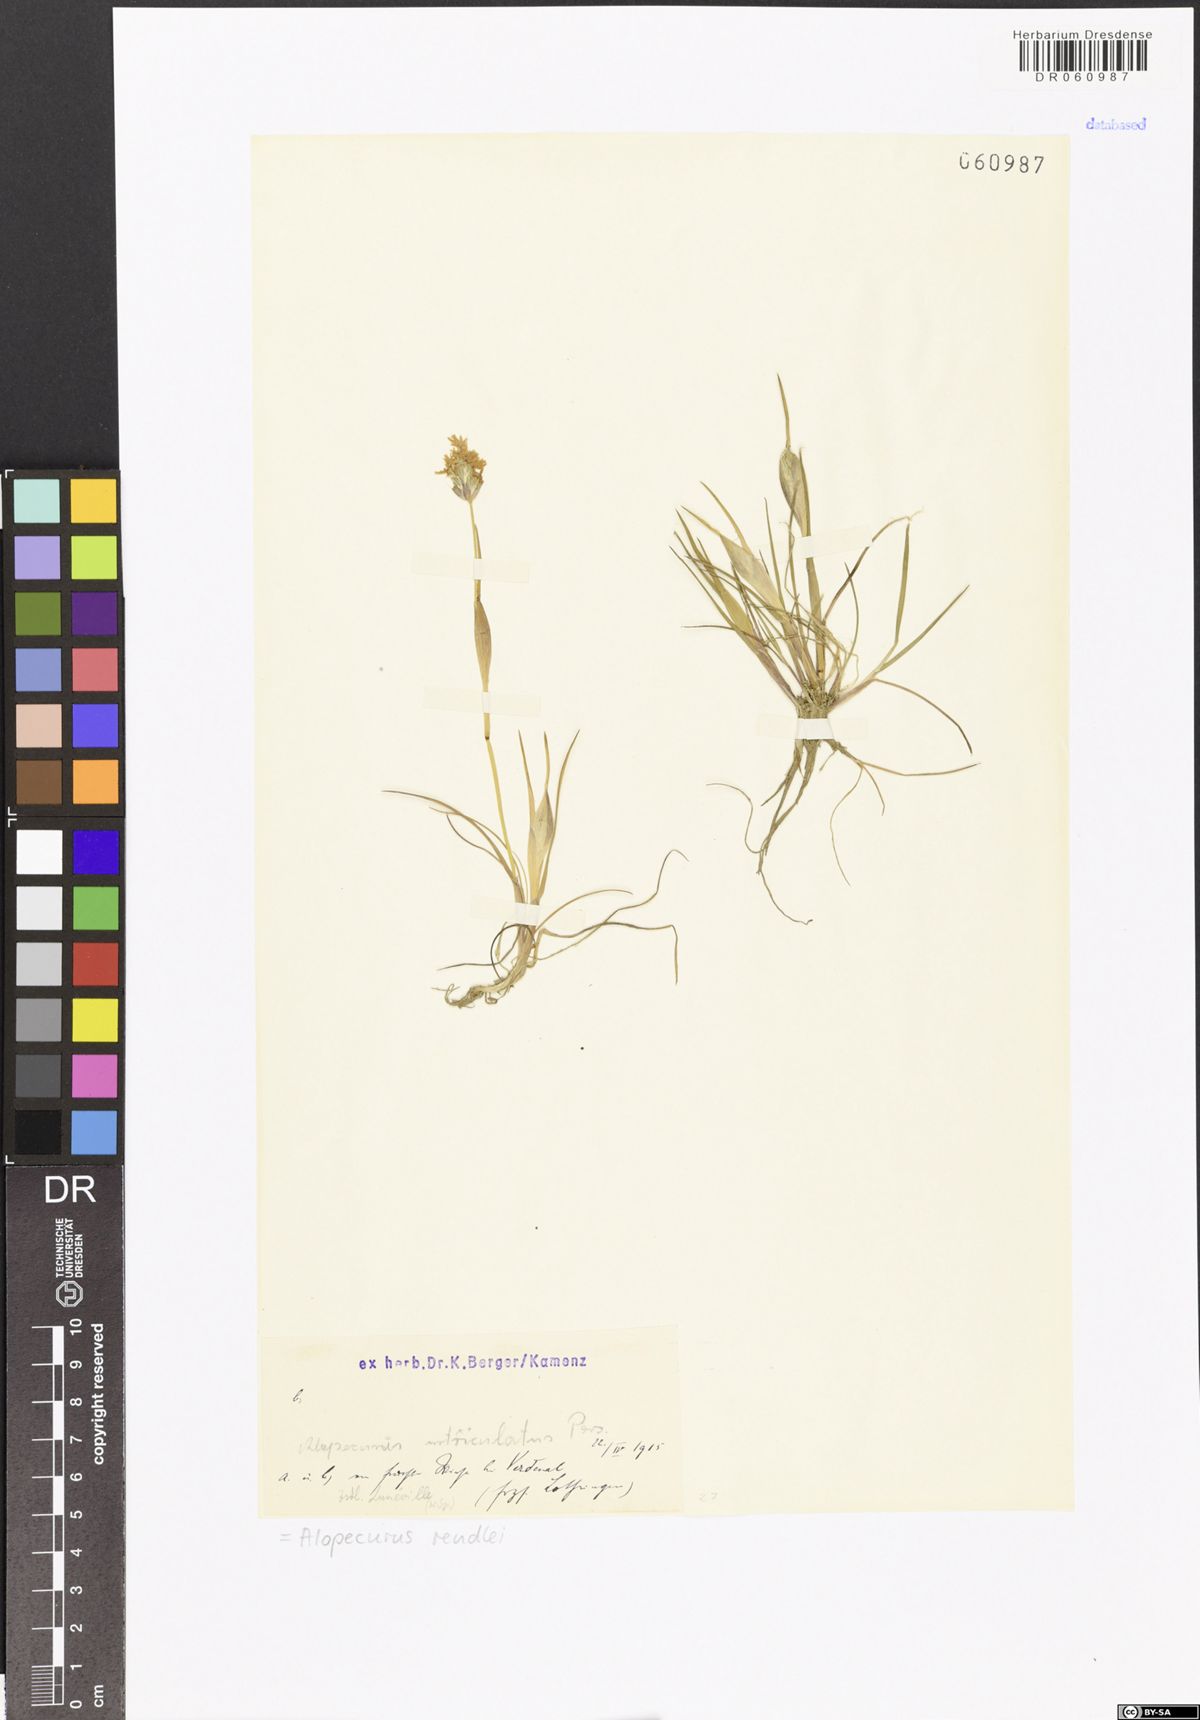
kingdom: Plantae
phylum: Tracheophyta
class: Liliopsida
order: Poales
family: Poaceae
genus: Alopecurus
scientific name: Alopecurus rendlei
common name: Rendle's meadow foxtail
